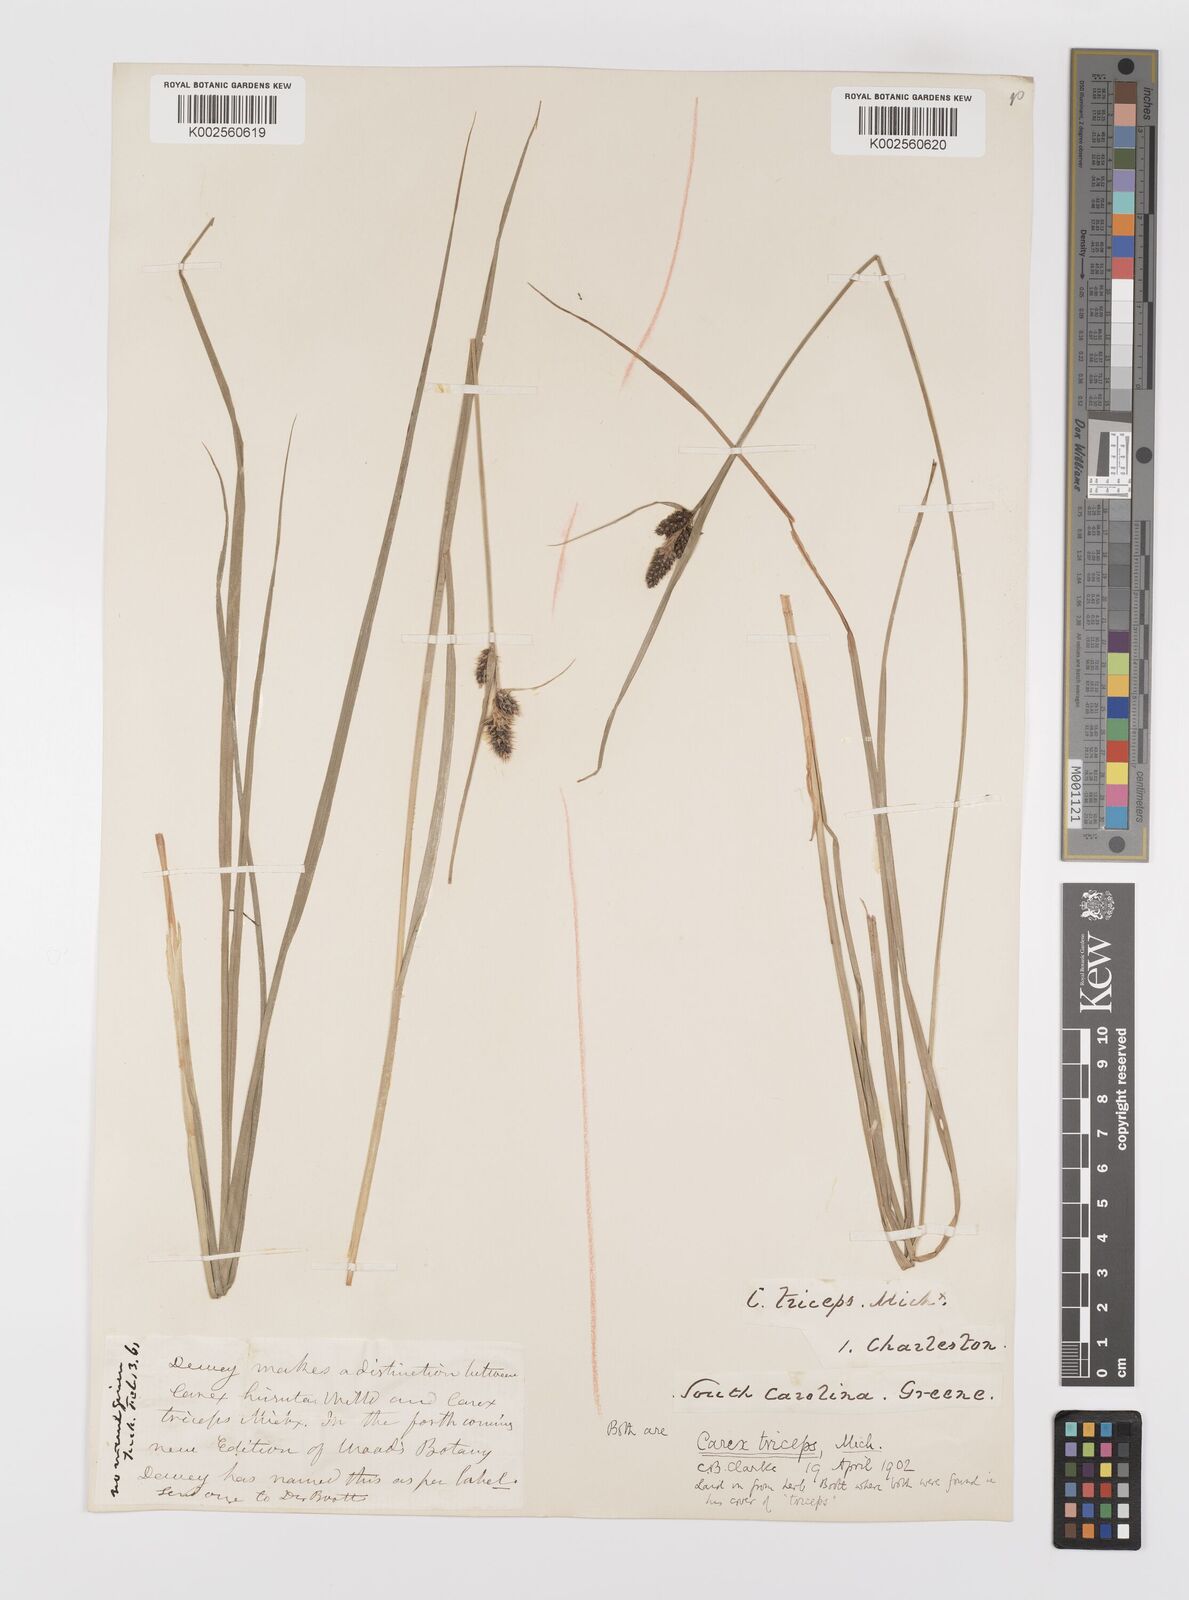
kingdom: Plantae
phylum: Tracheophyta
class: Liliopsida
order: Poales
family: Cyperaceae
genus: Carex
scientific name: Carex complanata
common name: Hirsute sedge
